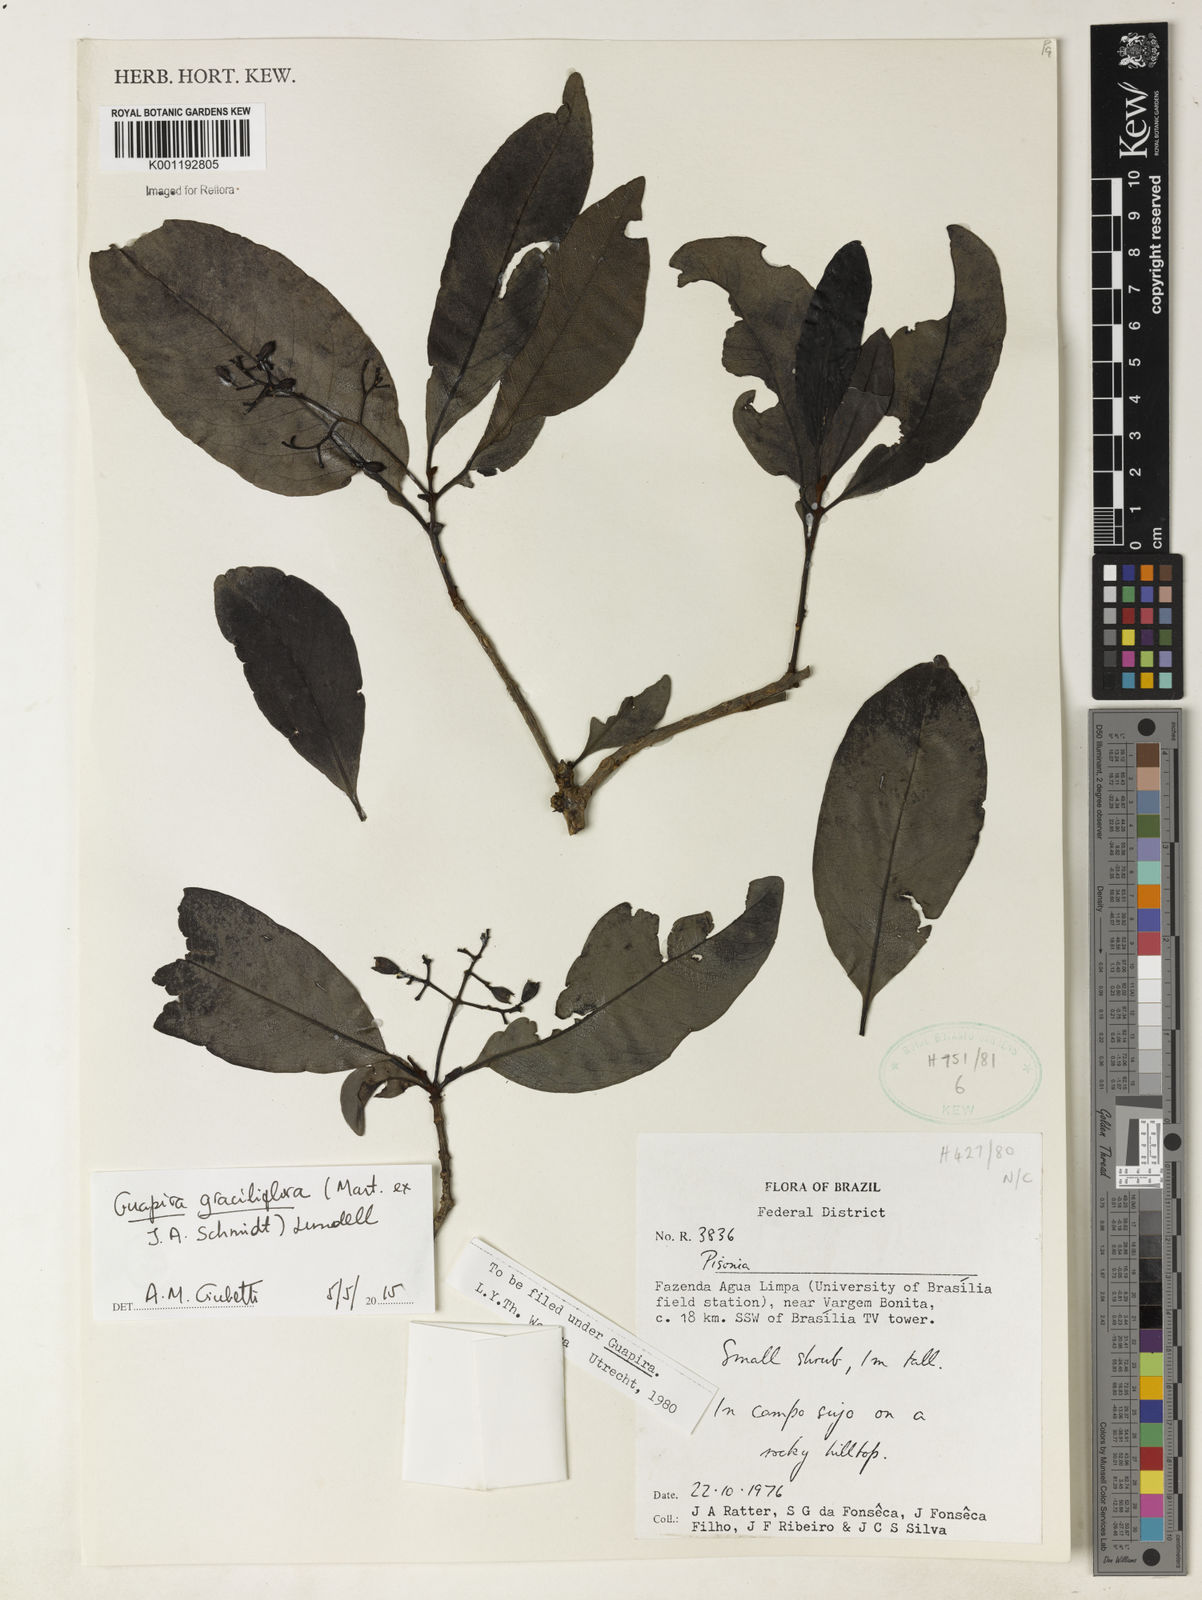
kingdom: Plantae
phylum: Tracheophyta
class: Magnoliopsida
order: Caryophyllales
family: Nyctaginaceae
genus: Guapira
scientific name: Guapira graciliflora
